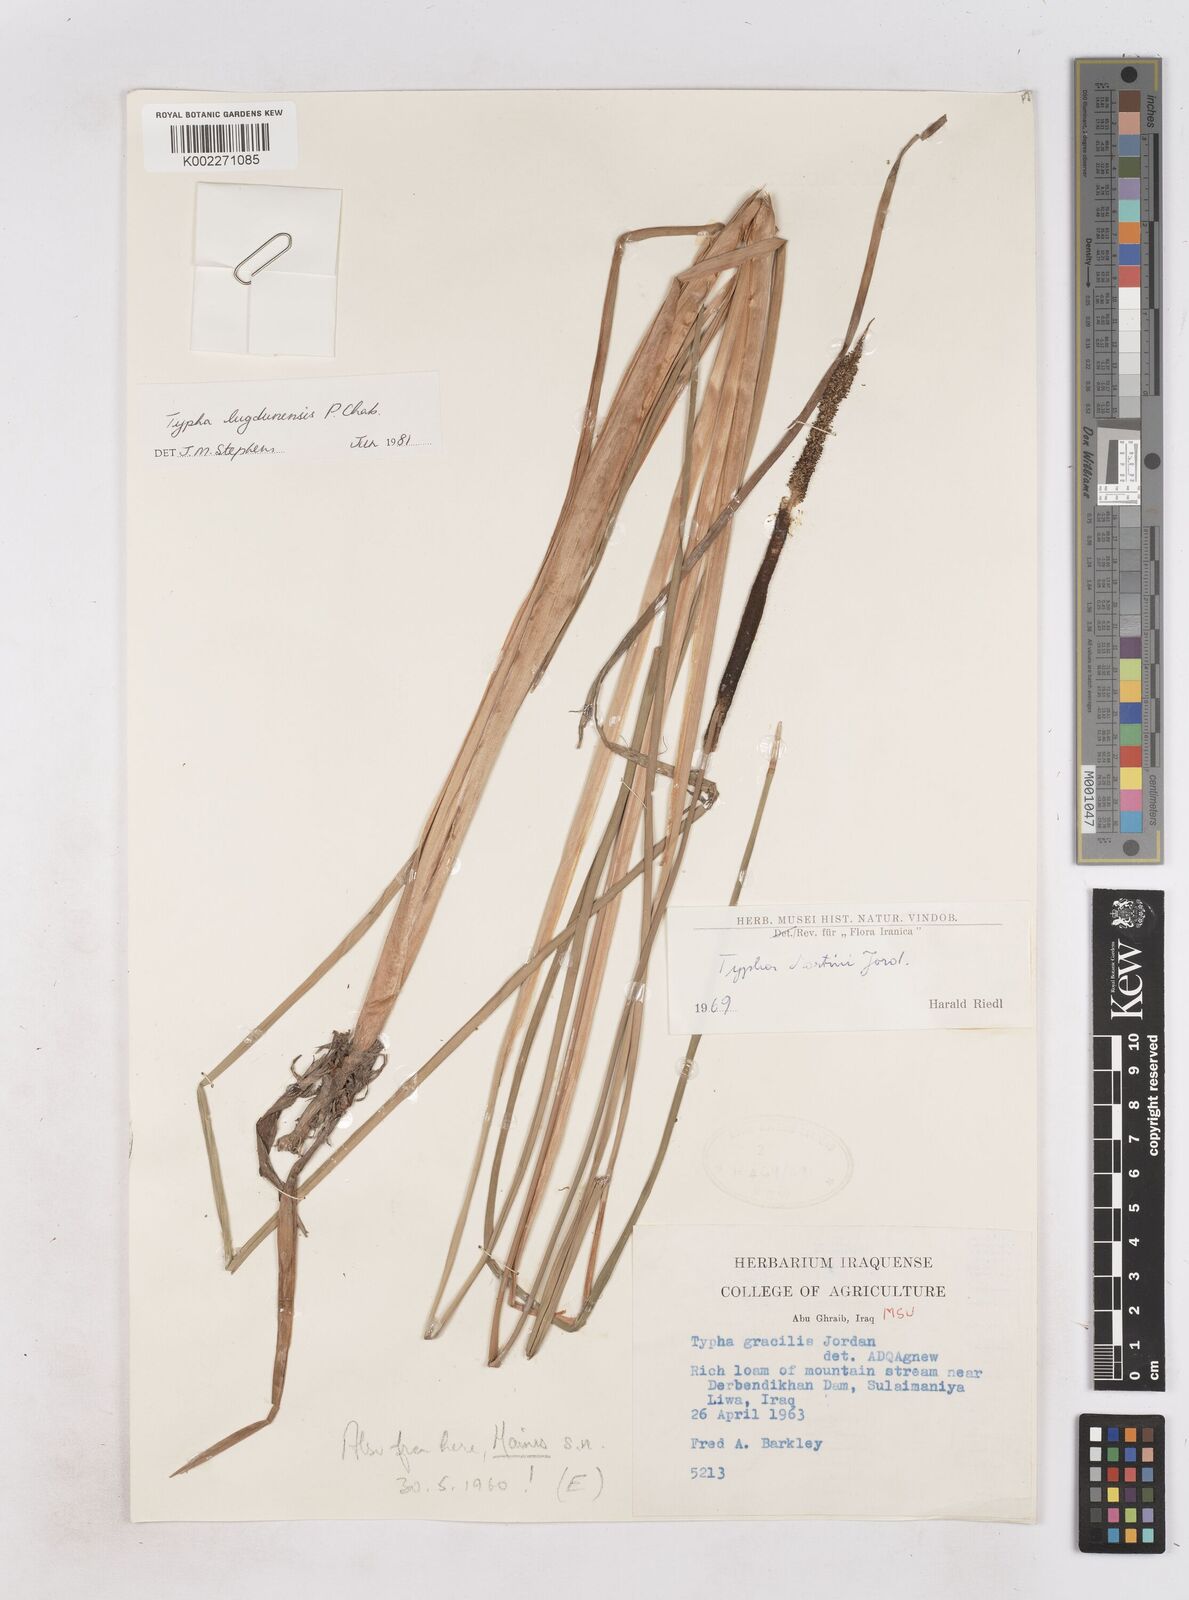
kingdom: Plantae
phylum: Tracheophyta
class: Liliopsida
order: Poales
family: Typhaceae
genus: Typha
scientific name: Typha lugdunensis
